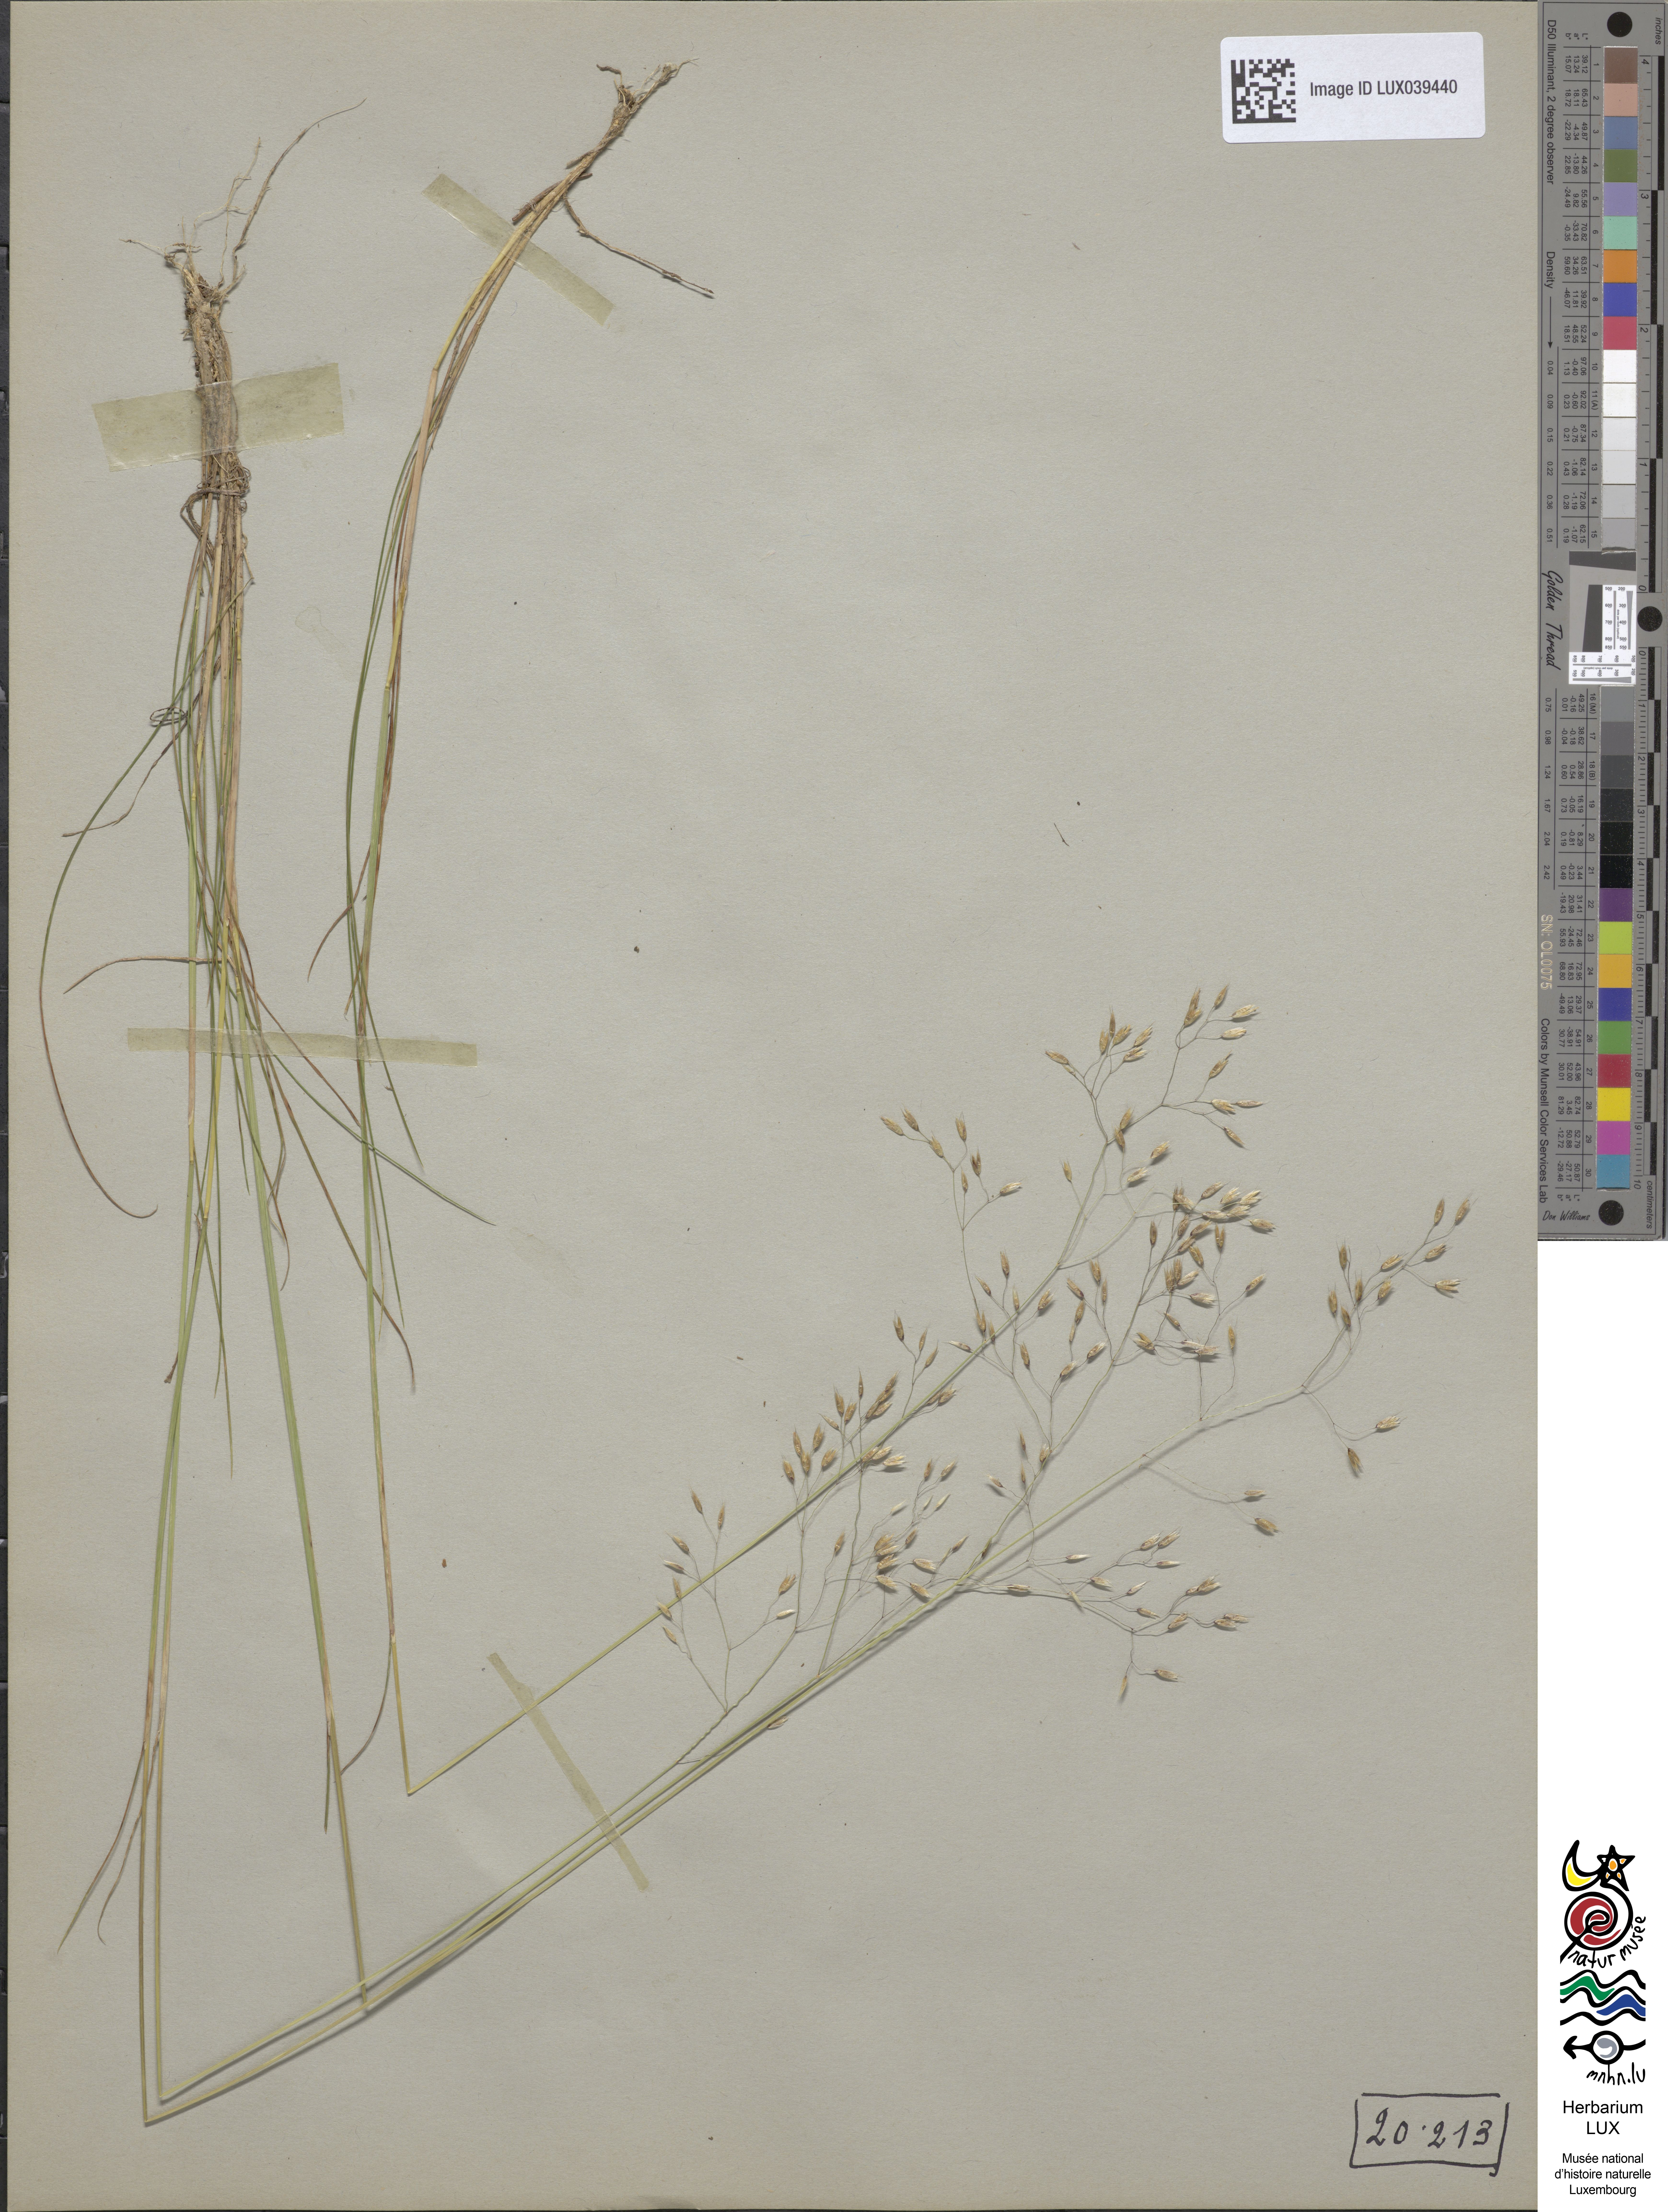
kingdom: Plantae
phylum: Tracheophyta
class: Liliopsida
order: Poales
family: Poaceae
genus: Avenella
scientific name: Avenella flexuosa
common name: Wavy hairgrass
